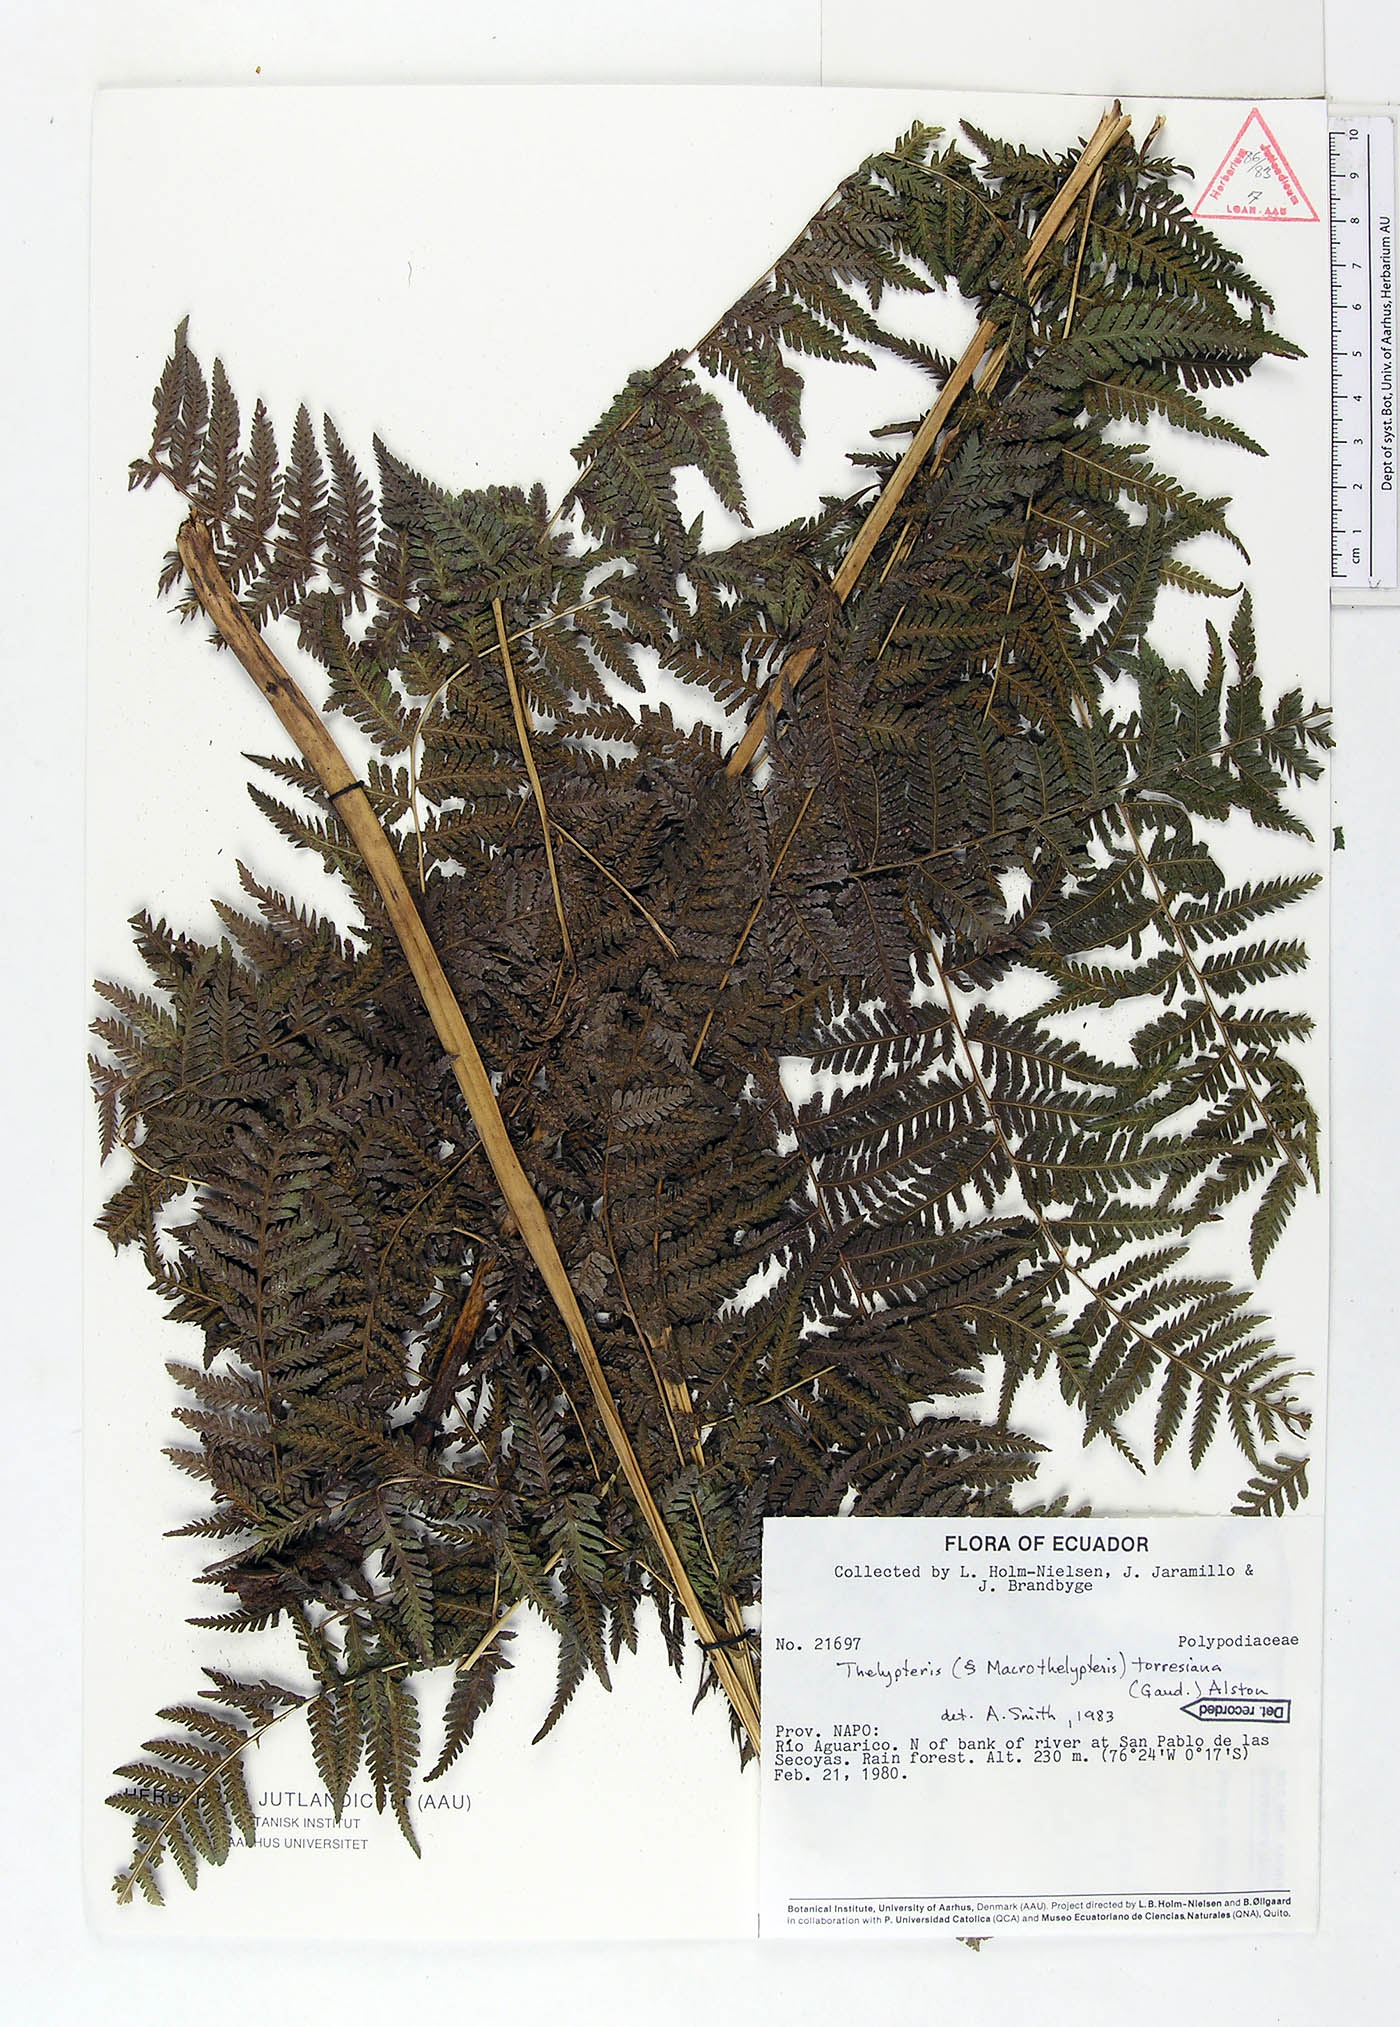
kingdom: Plantae
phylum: Tracheophyta
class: Polypodiopsida
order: Polypodiales
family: Thelypteridaceae
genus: Macrothelypteris
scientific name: Macrothelypteris torresiana
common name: Swordfern
